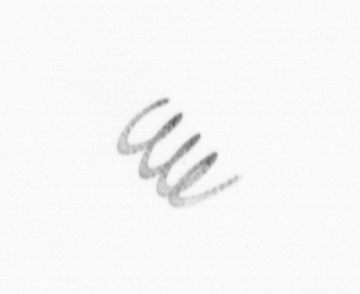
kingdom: Chromista
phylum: Ochrophyta
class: Bacillariophyceae
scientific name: Bacillariophyceae
